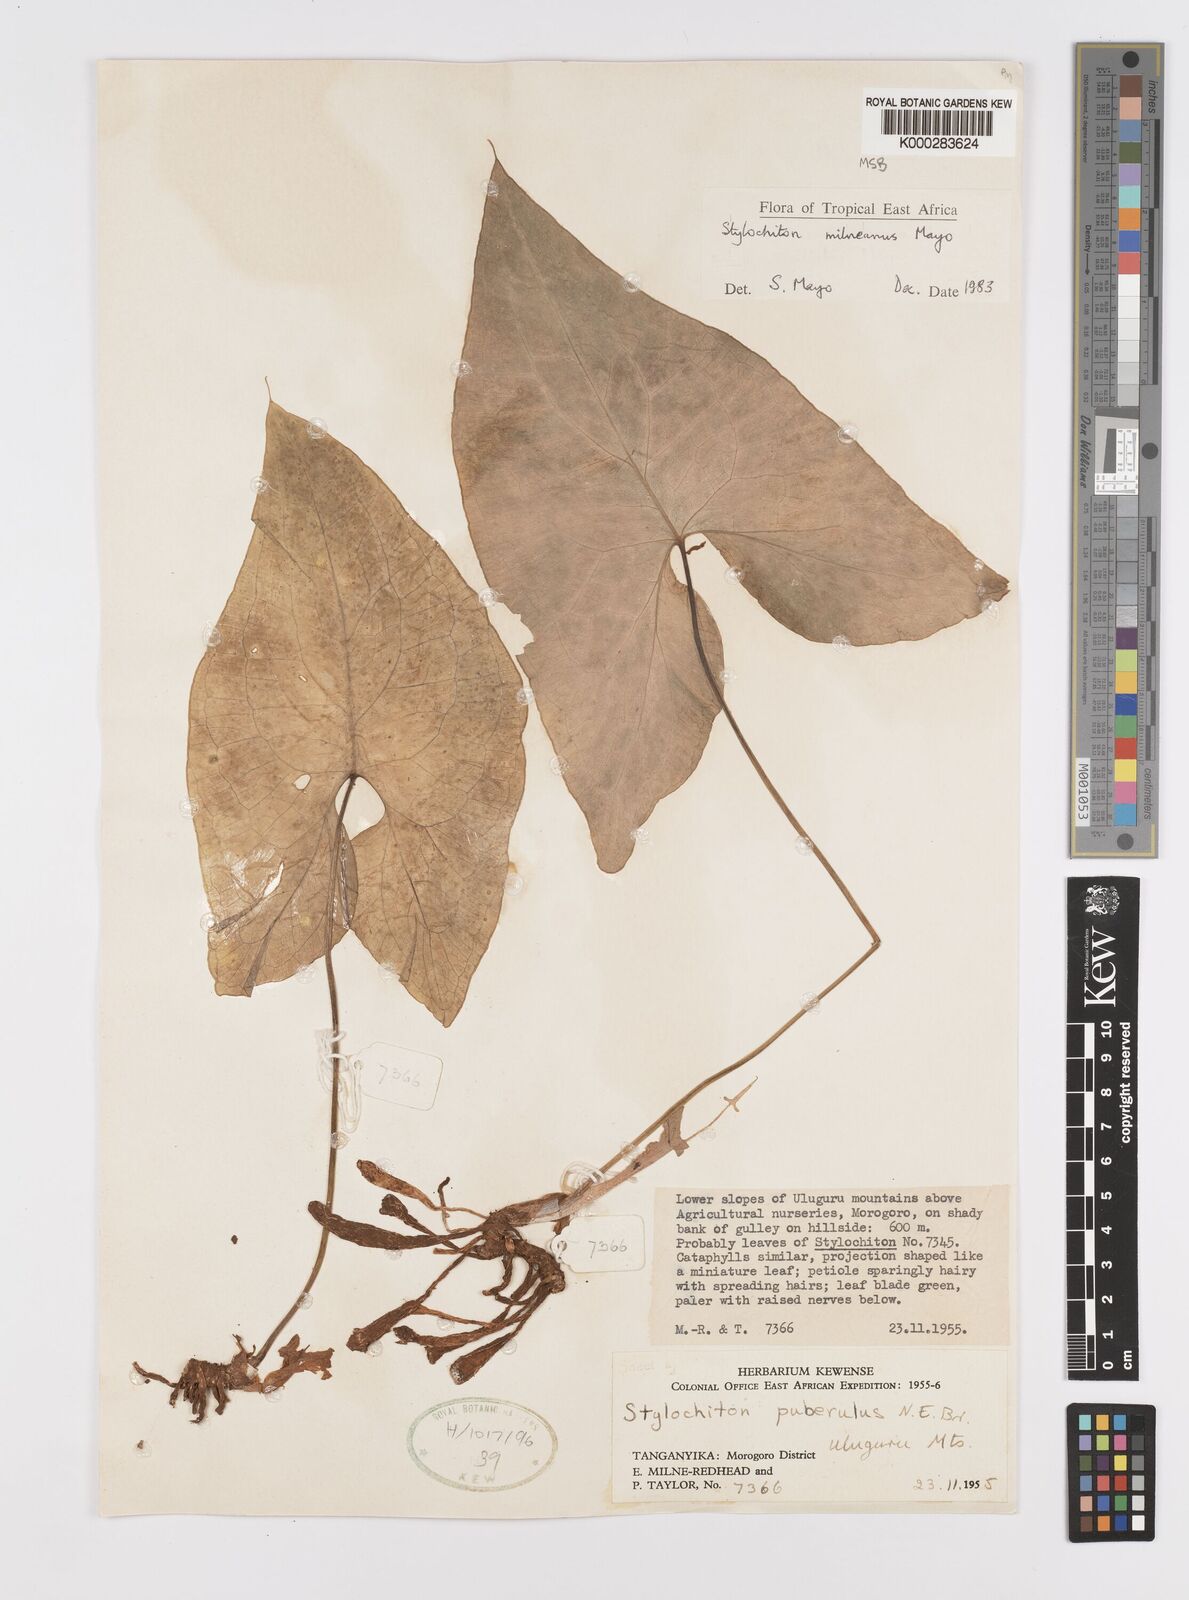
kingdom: Plantae
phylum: Tracheophyta
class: Liliopsida
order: Alismatales
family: Araceae
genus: Stylochaeton
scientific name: Stylochaeton milneanum
